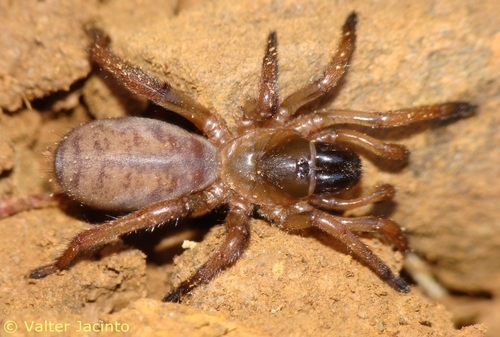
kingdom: Animalia
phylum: Arthropoda
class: Arachnida
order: Araneae
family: Nemesiidae
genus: Iberesia
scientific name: Iberesia machadoi
